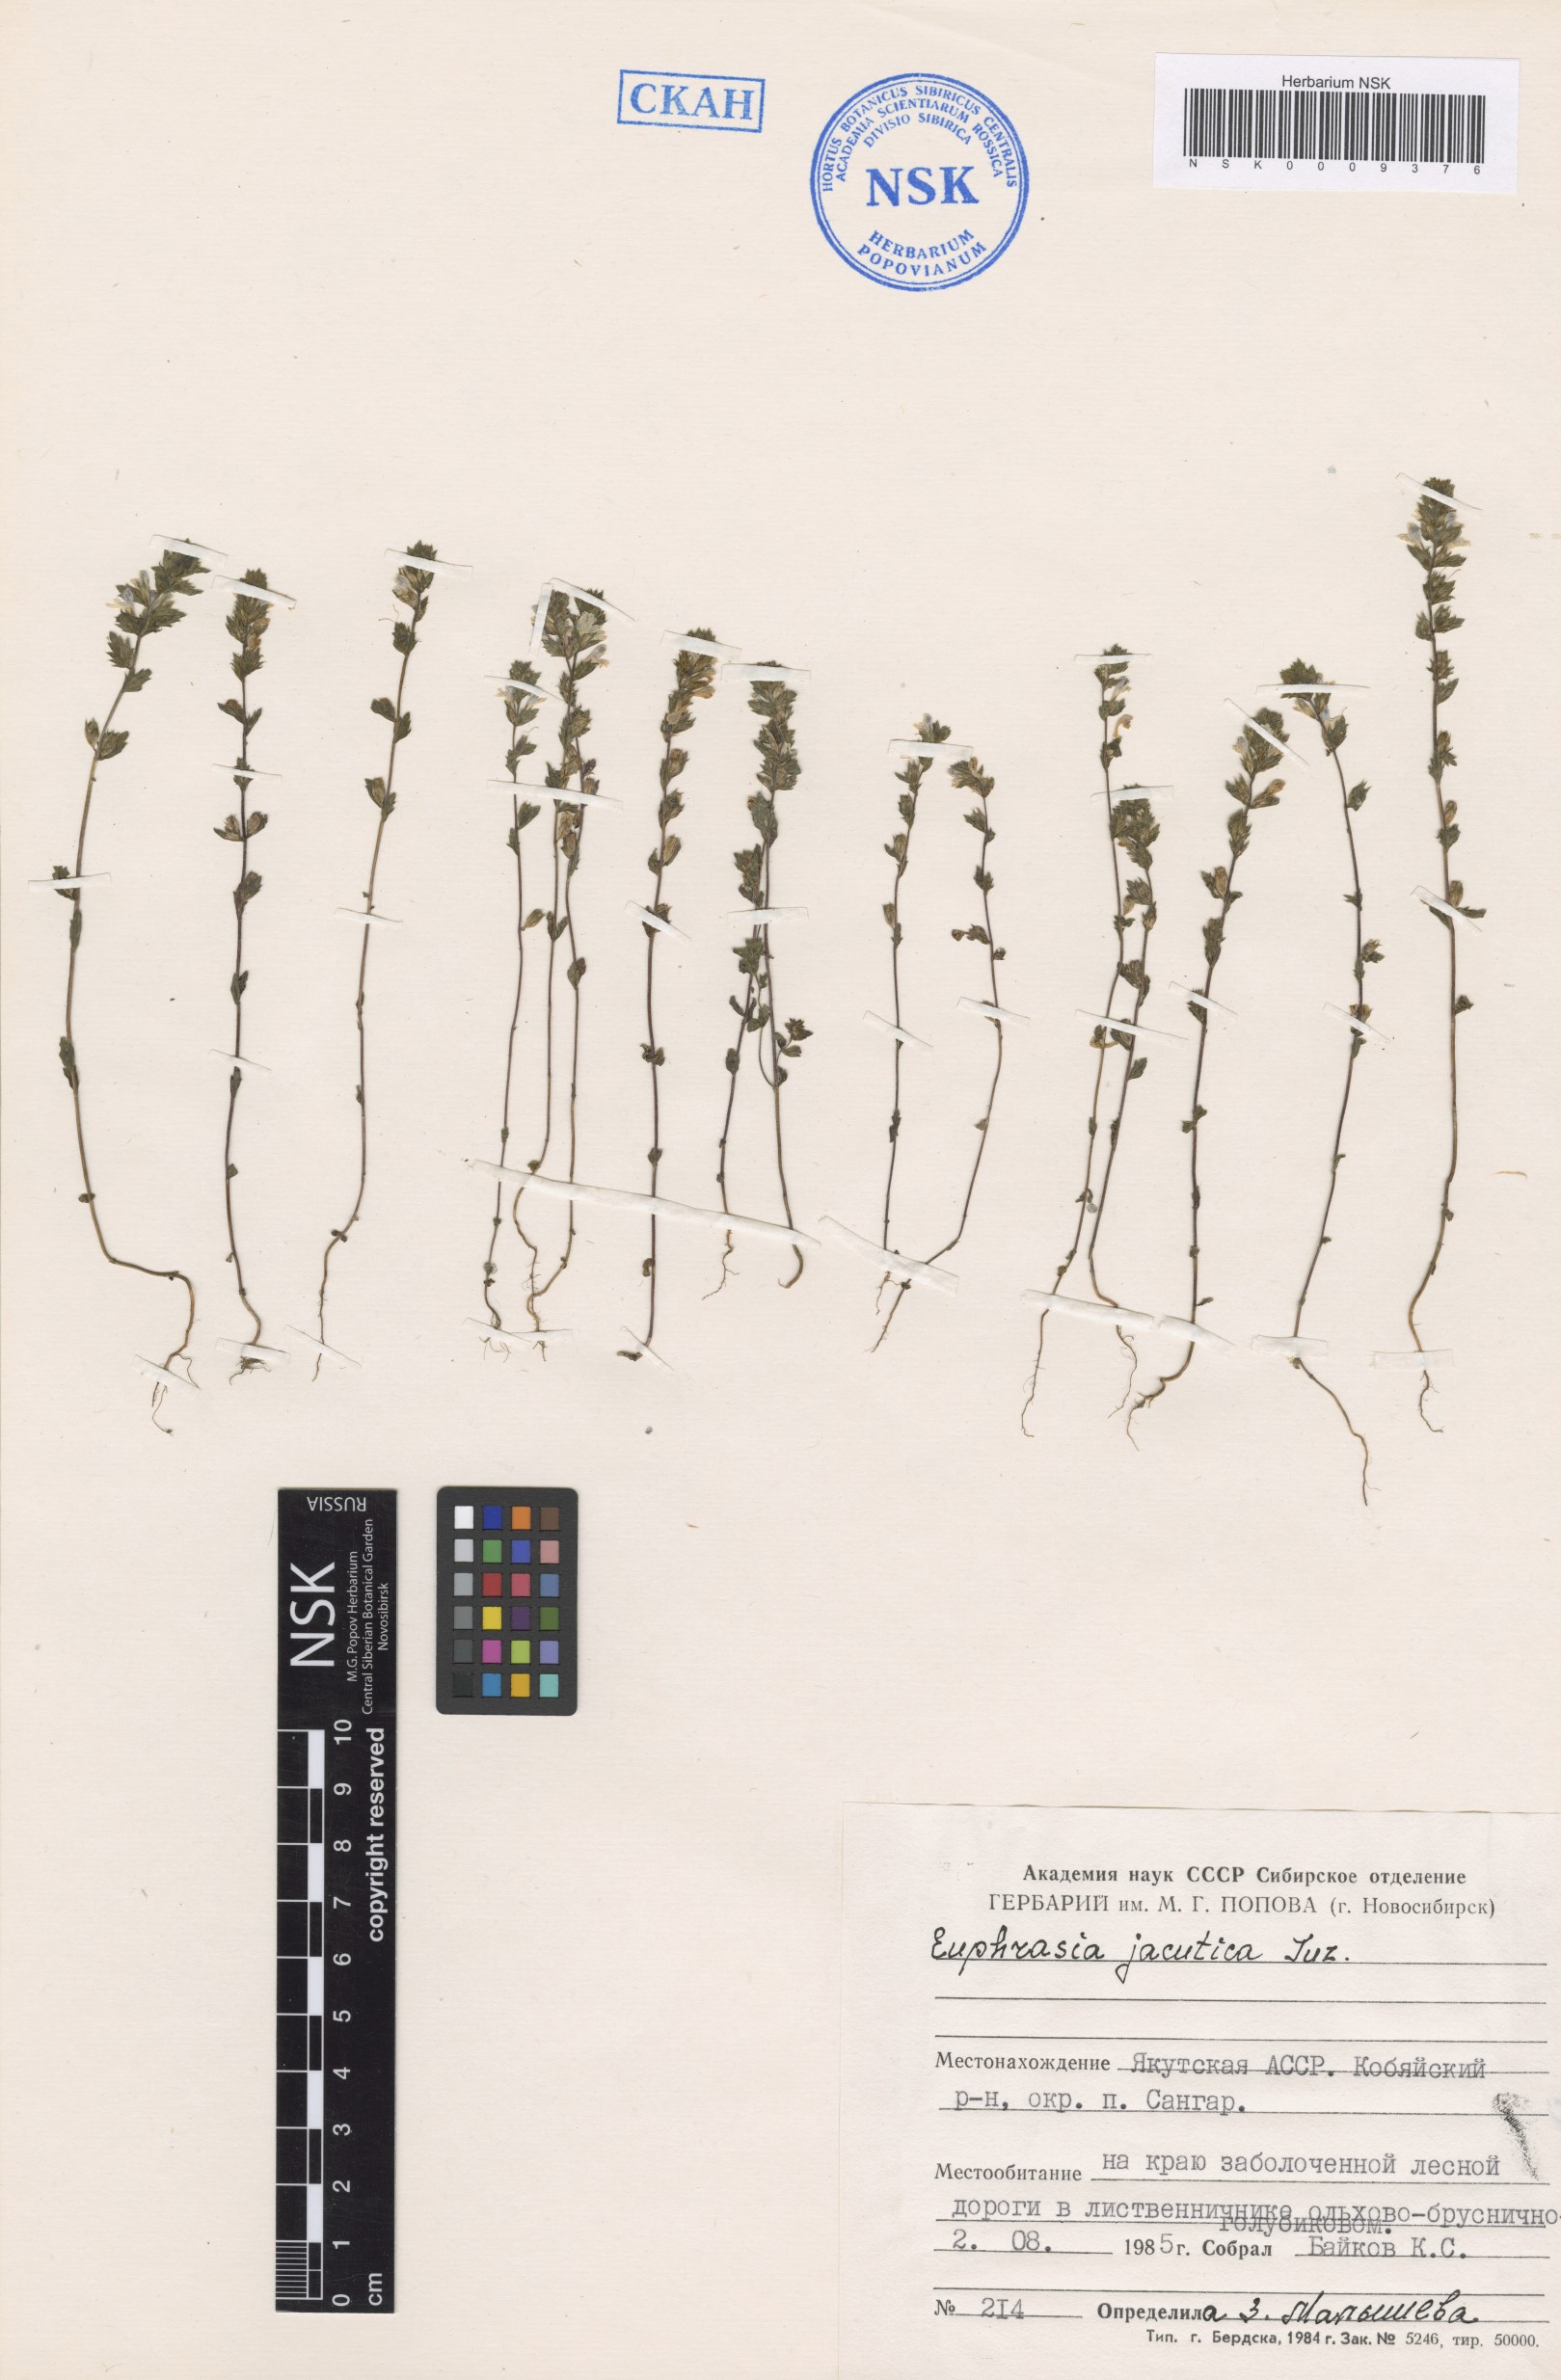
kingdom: Plantae
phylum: Tracheophyta
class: Magnoliopsida
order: Lamiales
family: Orobanchaceae
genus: Euphrasia
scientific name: Euphrasia jacutica
